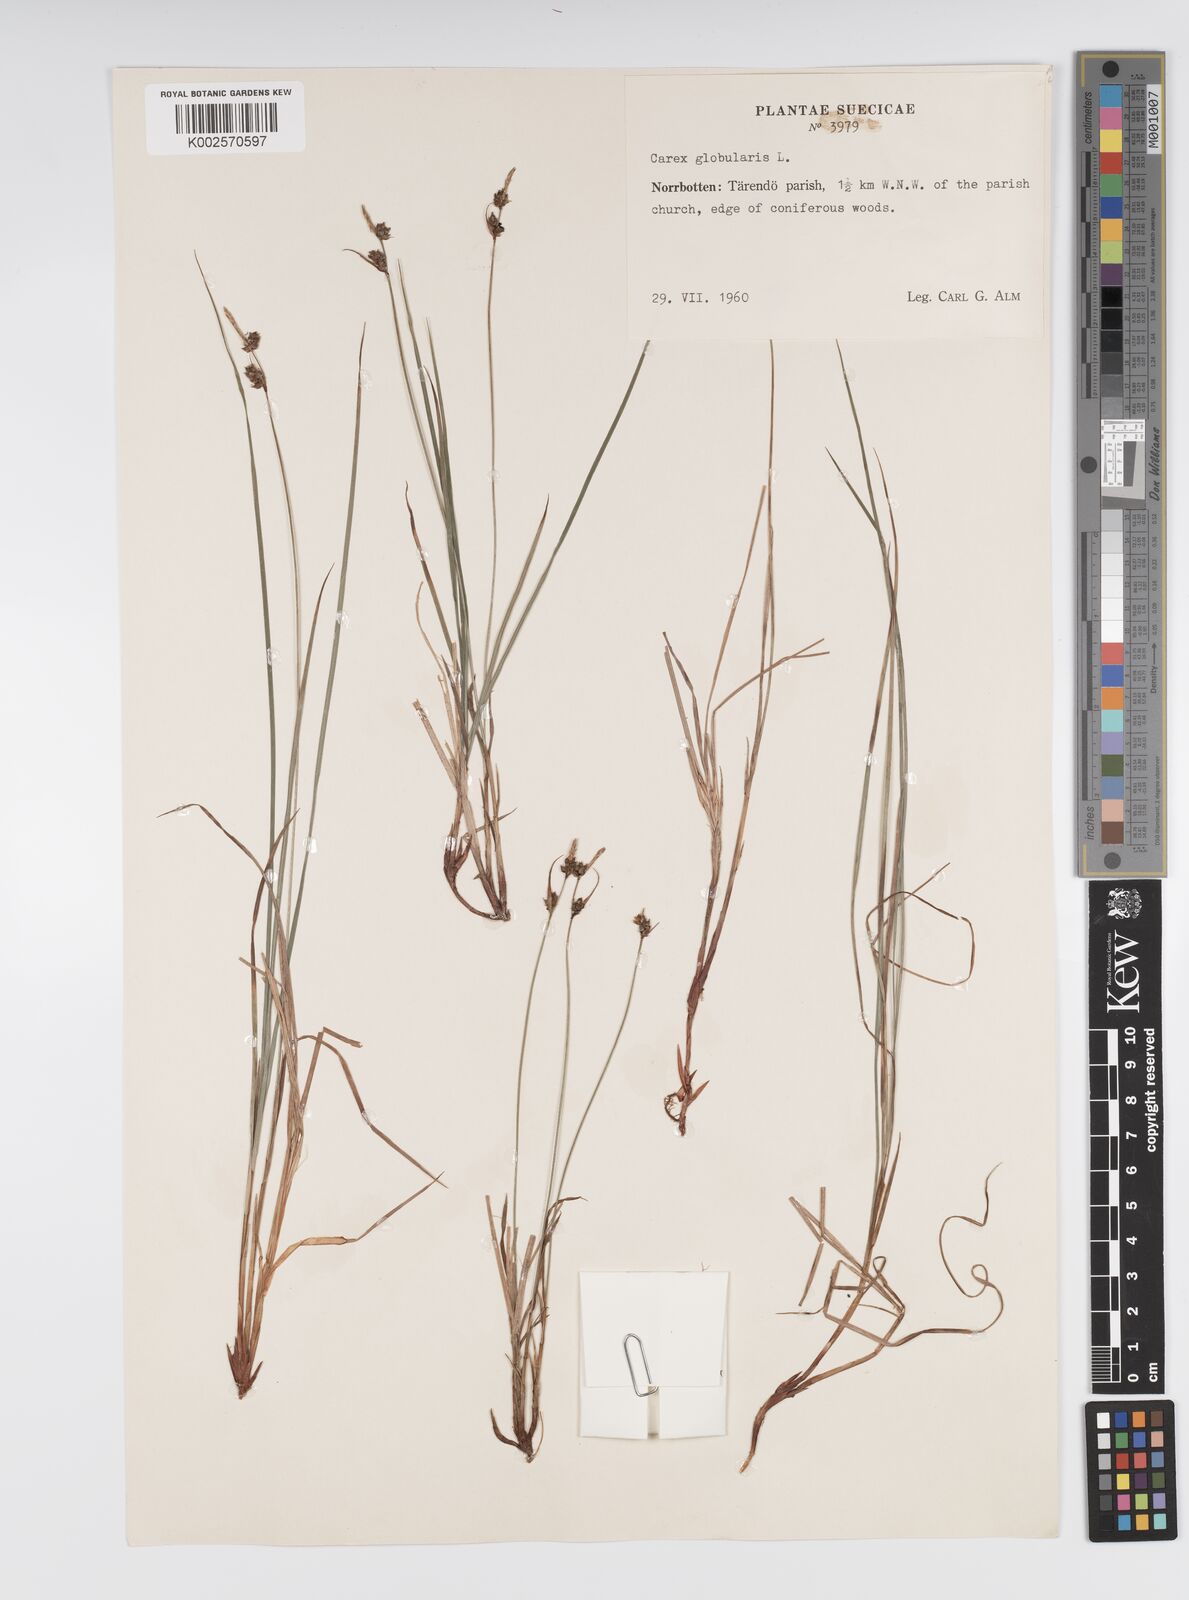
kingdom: Plantae
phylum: Tracheophyta
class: Liliopsida
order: Poales
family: Cyperaceae
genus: Carex
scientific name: Carex globularis
